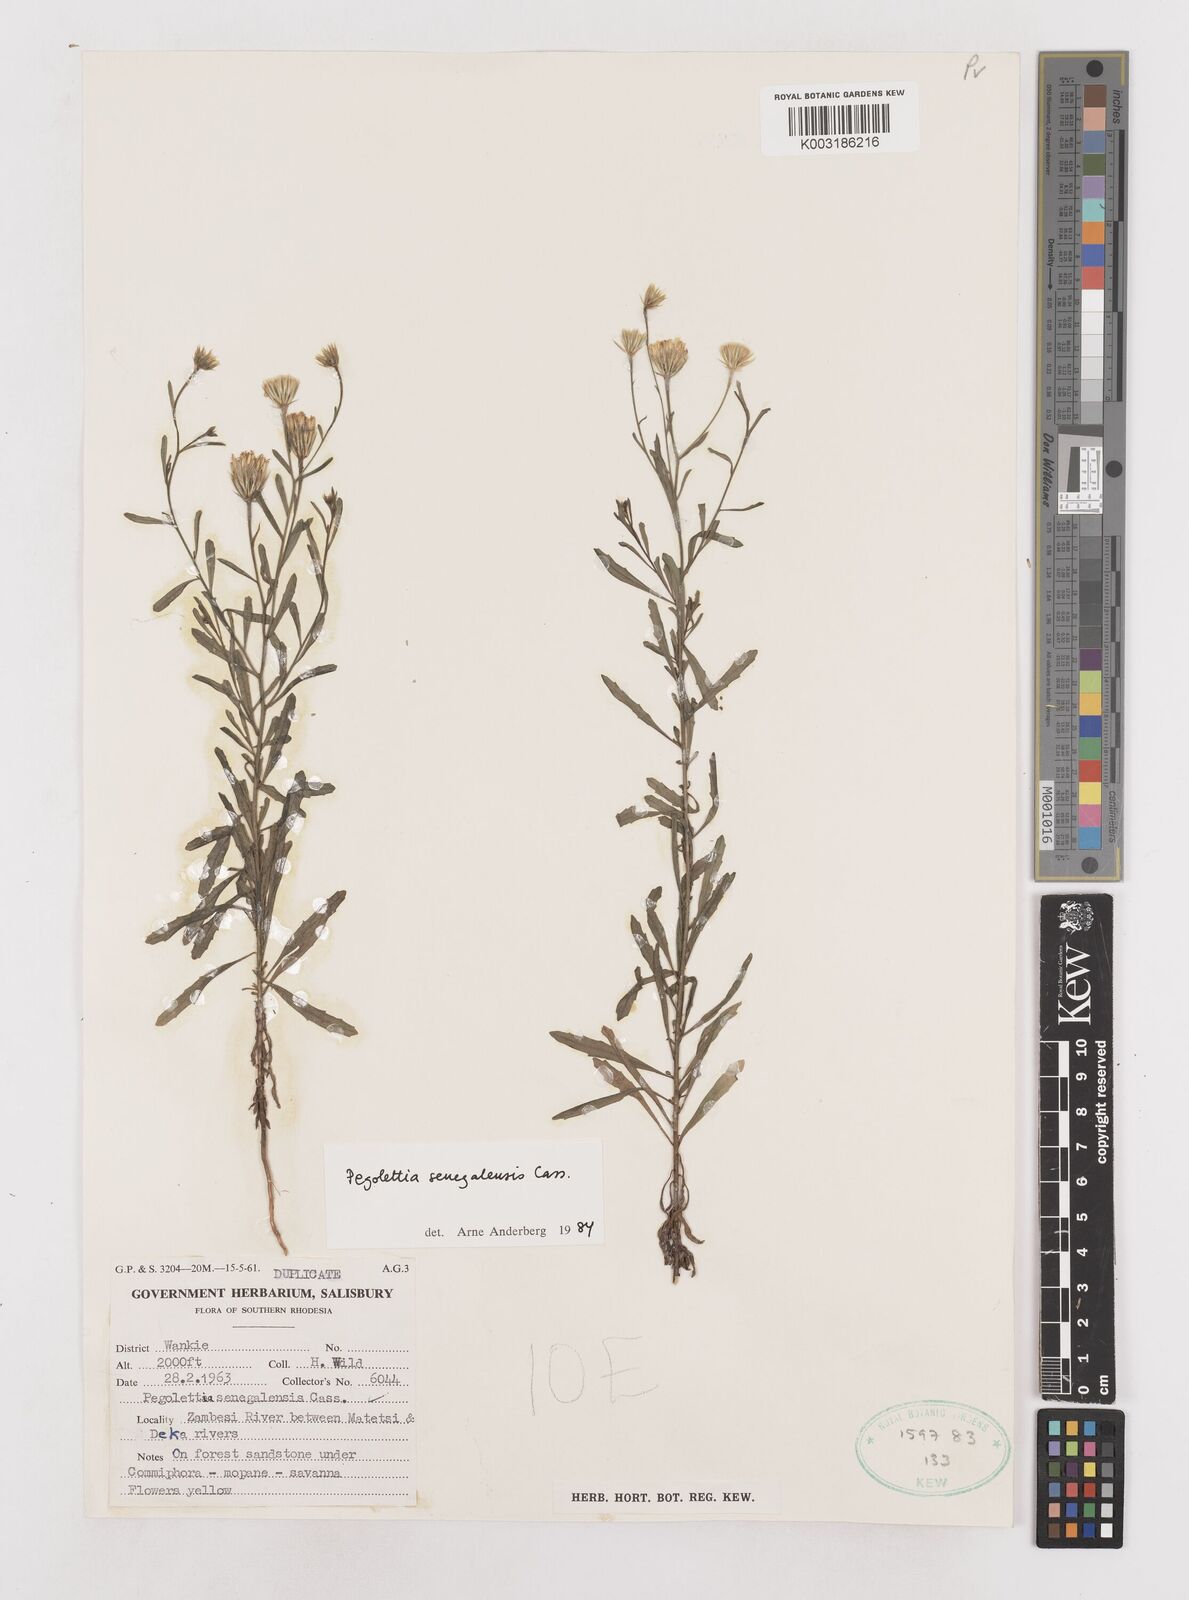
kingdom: Plantae
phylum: Tracheophyta
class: Magnoliopsida
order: Asterales
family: Asteraceae
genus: Pegolettia
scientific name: Pegolettia senegalensis
